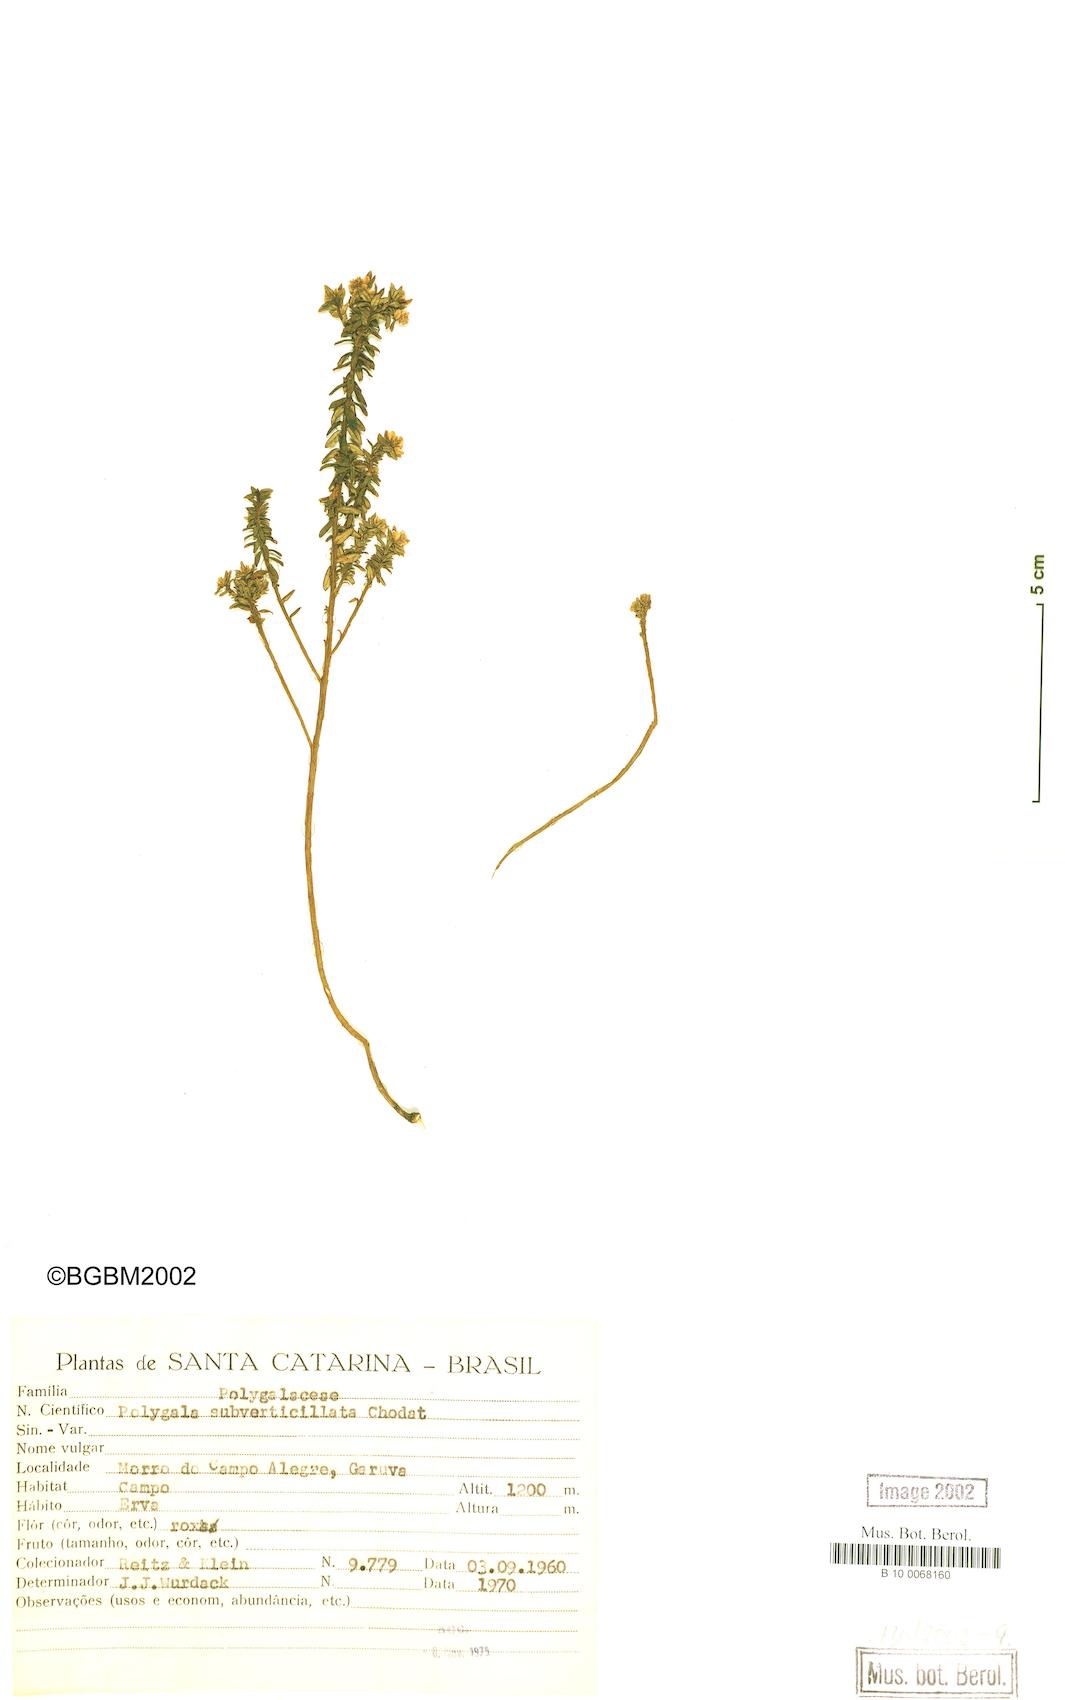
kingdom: Plantae
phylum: Tracheophyta
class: Magnoliopsida
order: Fabales
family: Polygalaceae
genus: Polygala
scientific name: Polygala subverticillata
